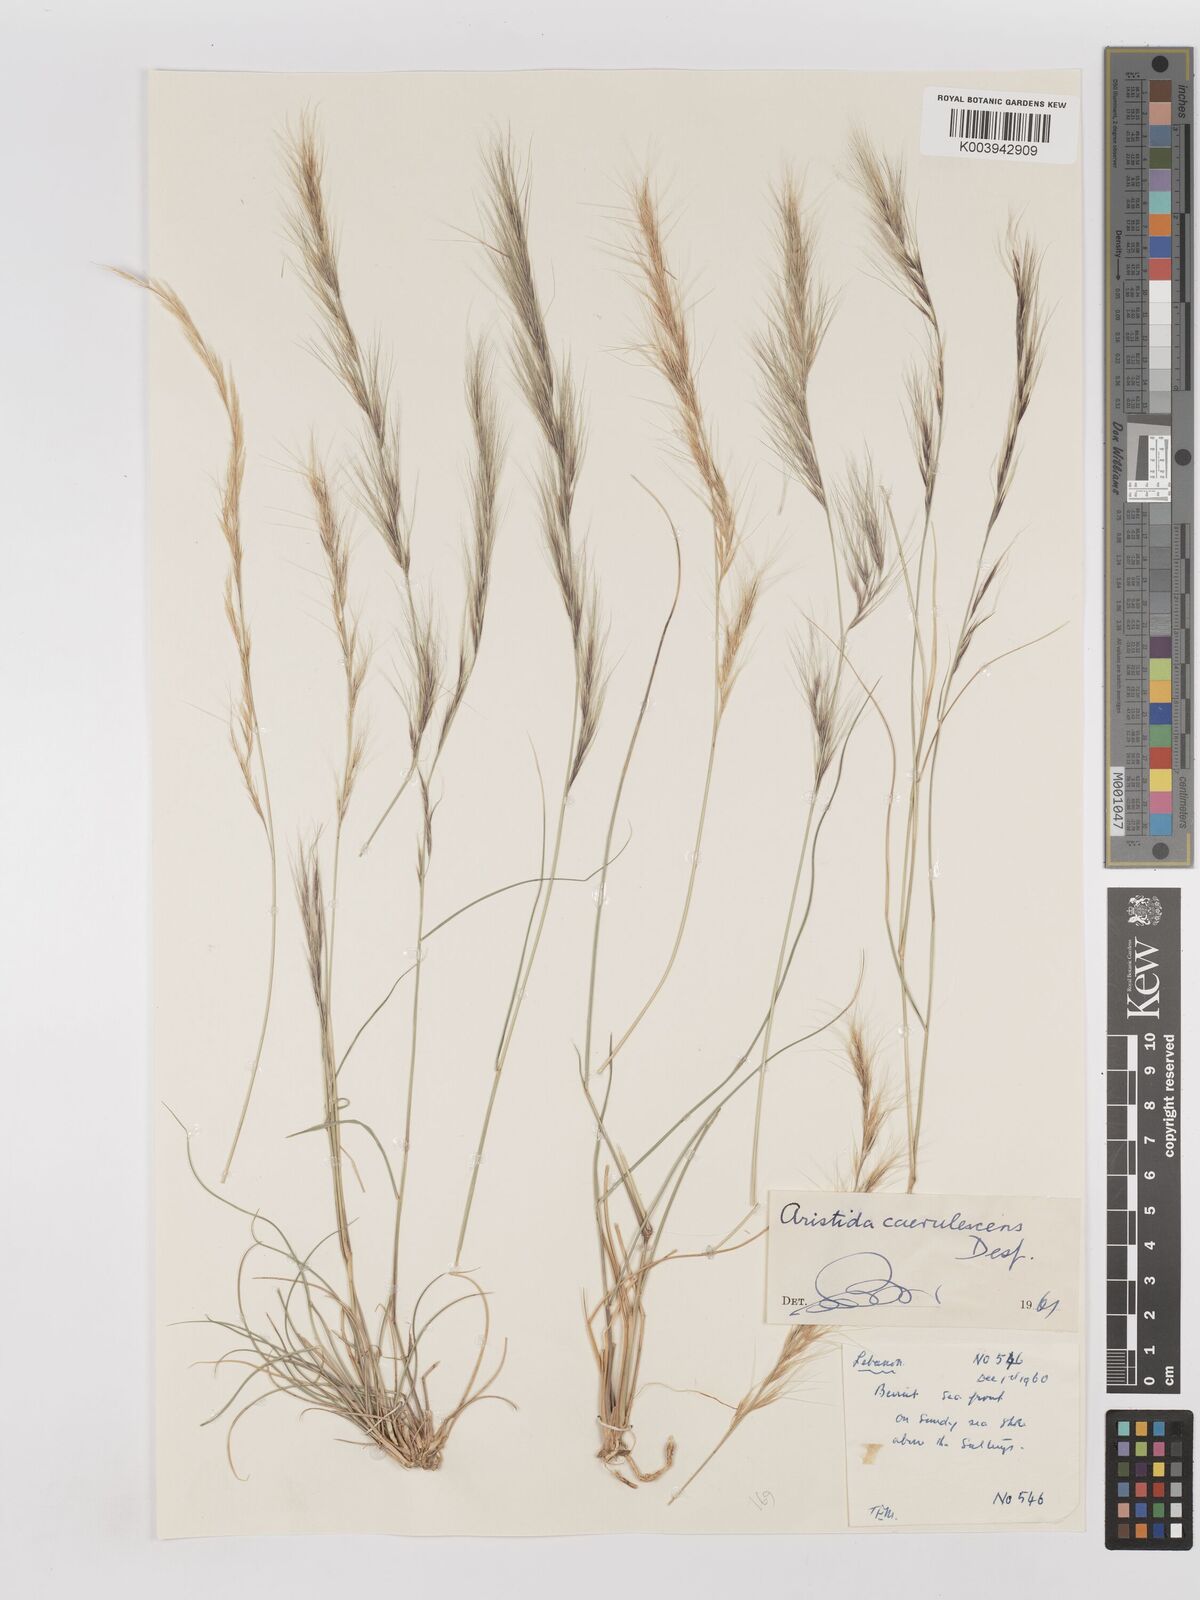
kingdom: Plantae
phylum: Tracheophyta
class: Liliopsida
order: Poales
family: Poaceae
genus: Aristida
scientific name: Aristida adscensionis
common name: Sixweeks threeawn
